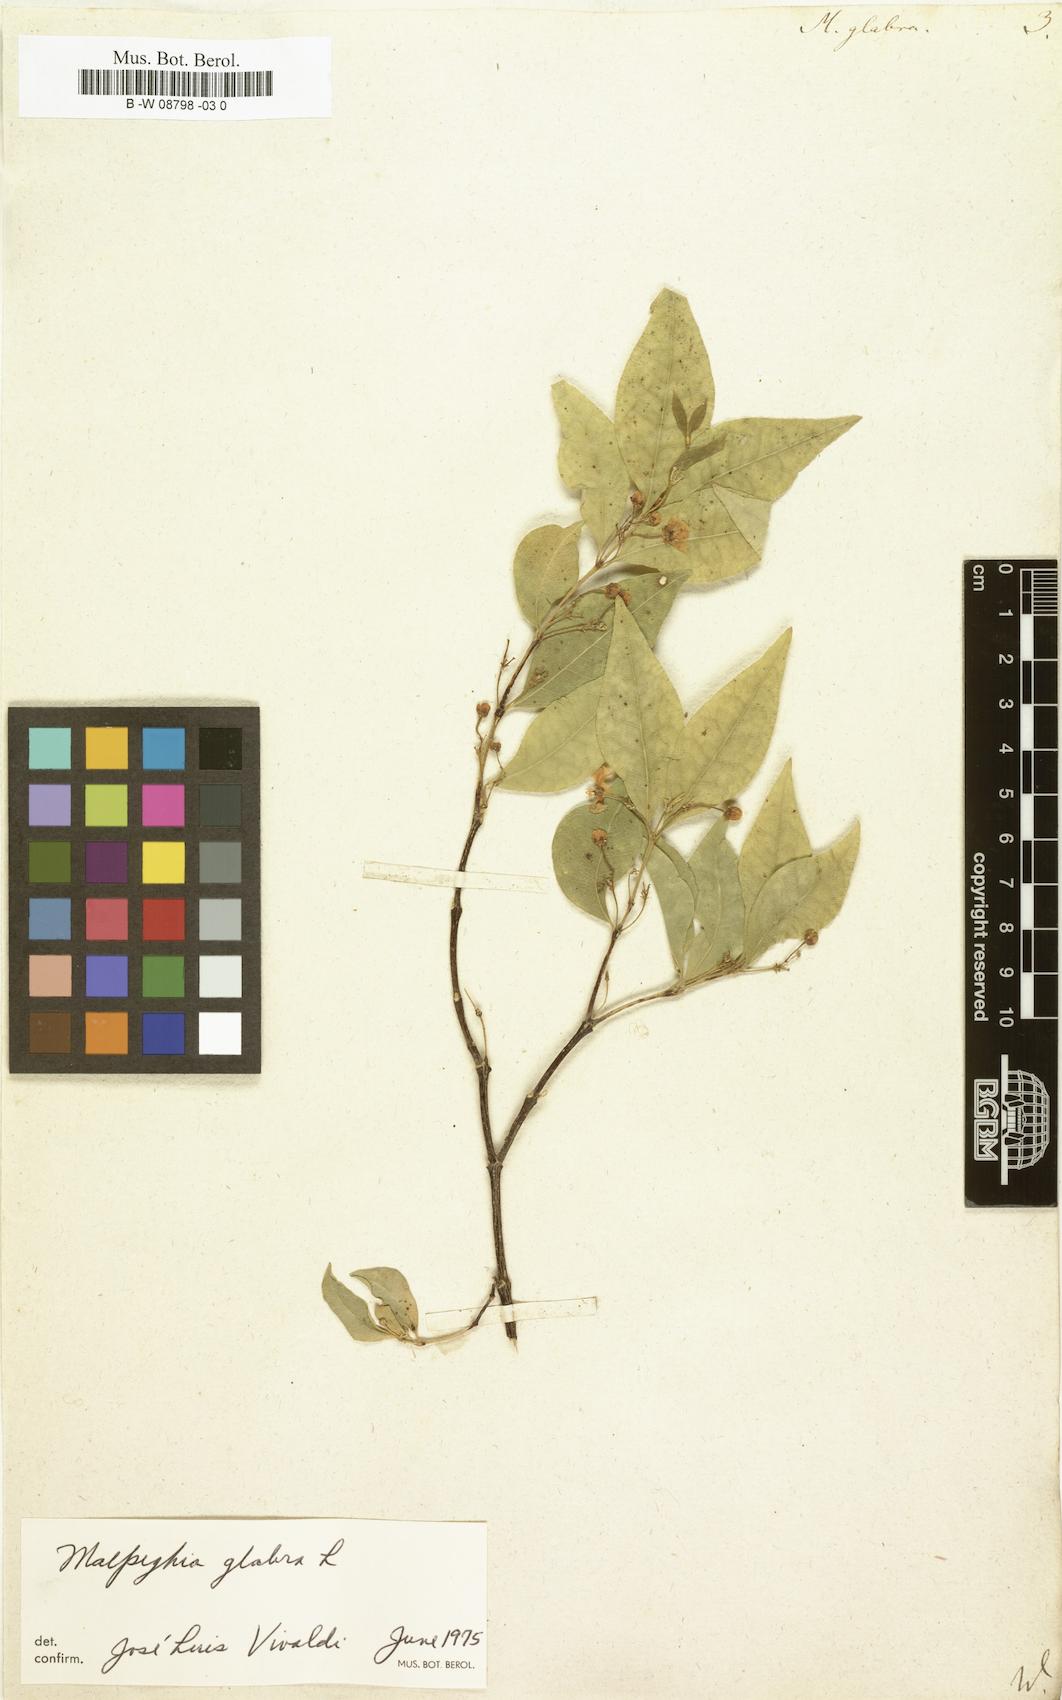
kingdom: Plantae
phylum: Tracheophyta
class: Magnoliopsida
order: Malpighiales
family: Malpighiaceae
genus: Malpighia
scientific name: Malpighia glabra
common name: Barbados cherry
